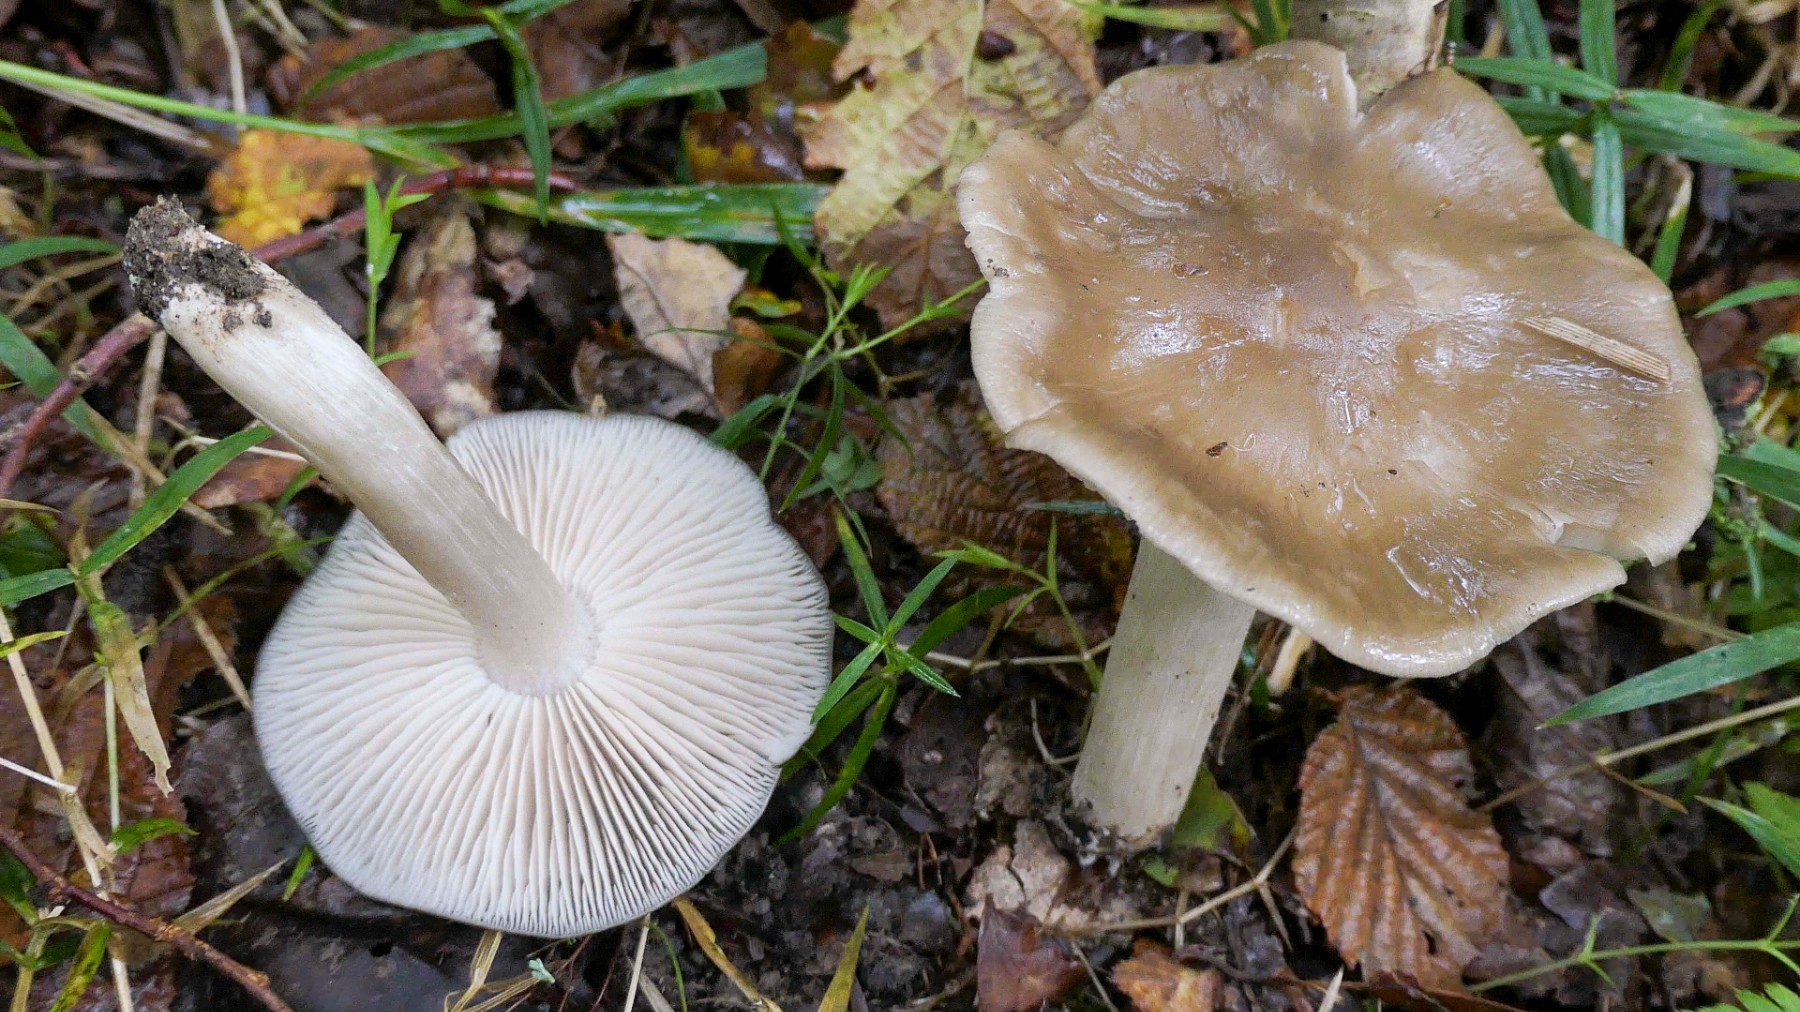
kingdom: Fungi
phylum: Basidiomycota
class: Agaricomycetes
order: Agaricales
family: Entolomataceae
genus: Entoloma
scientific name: Entoloma lividoalbum
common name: lysstokket rødblad
